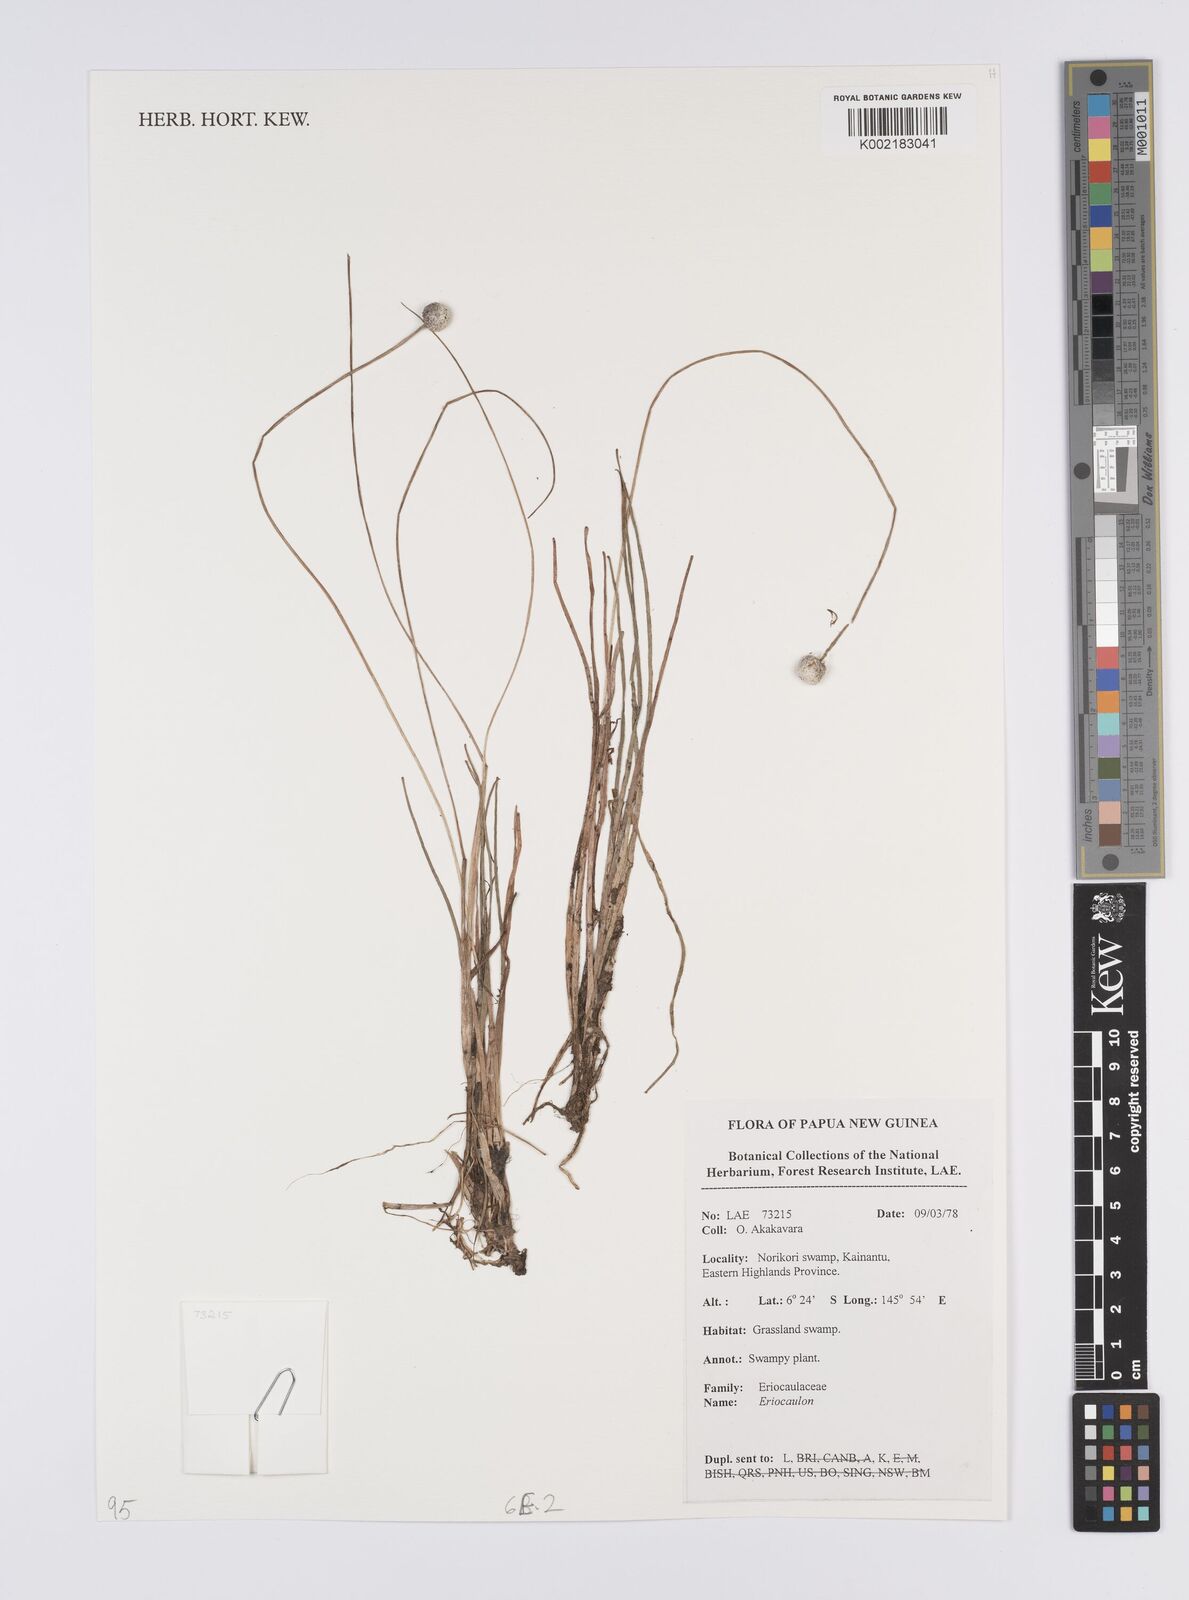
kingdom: Plantae
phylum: Tracheophyta
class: Liliopsida
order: Poales
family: Eriocaulaceae
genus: Eriocaulon
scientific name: Eriocaulon
